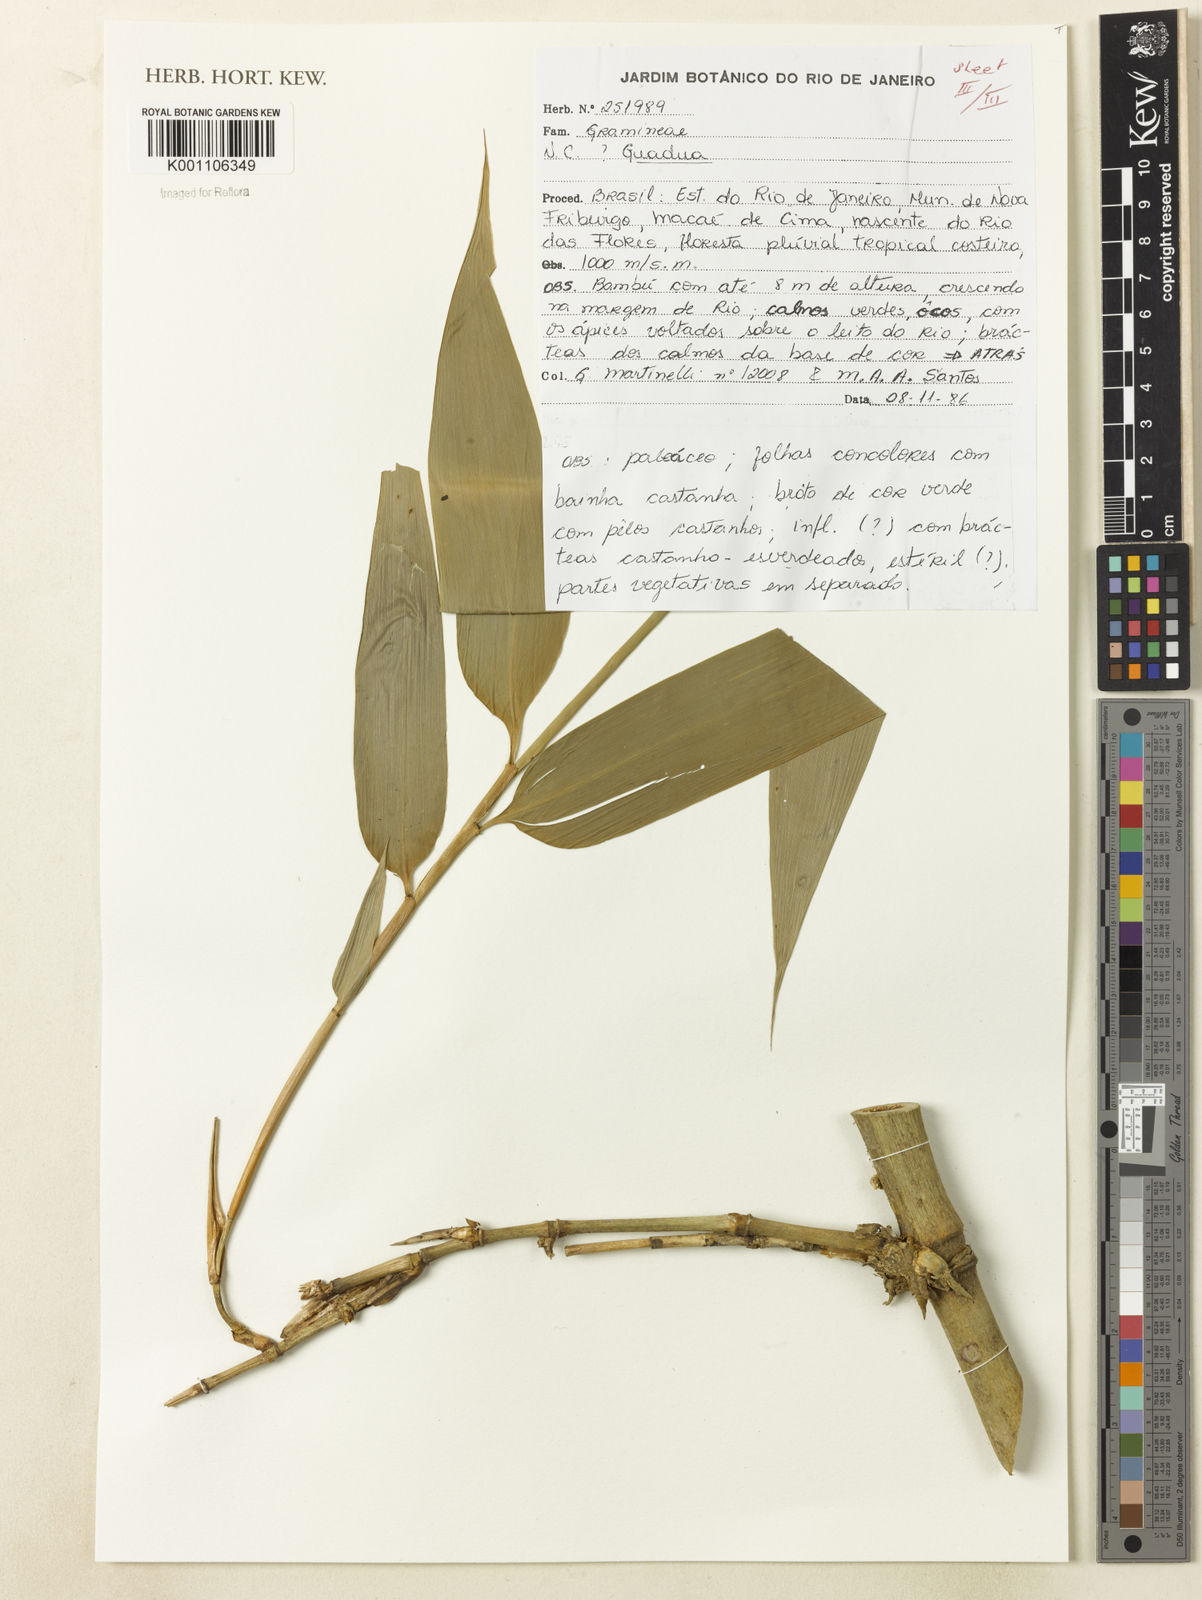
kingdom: Plantae
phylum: Tracheophyta
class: Liliopsida
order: Poales
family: Poaceae
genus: Guadua
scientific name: Guadua tagoara
